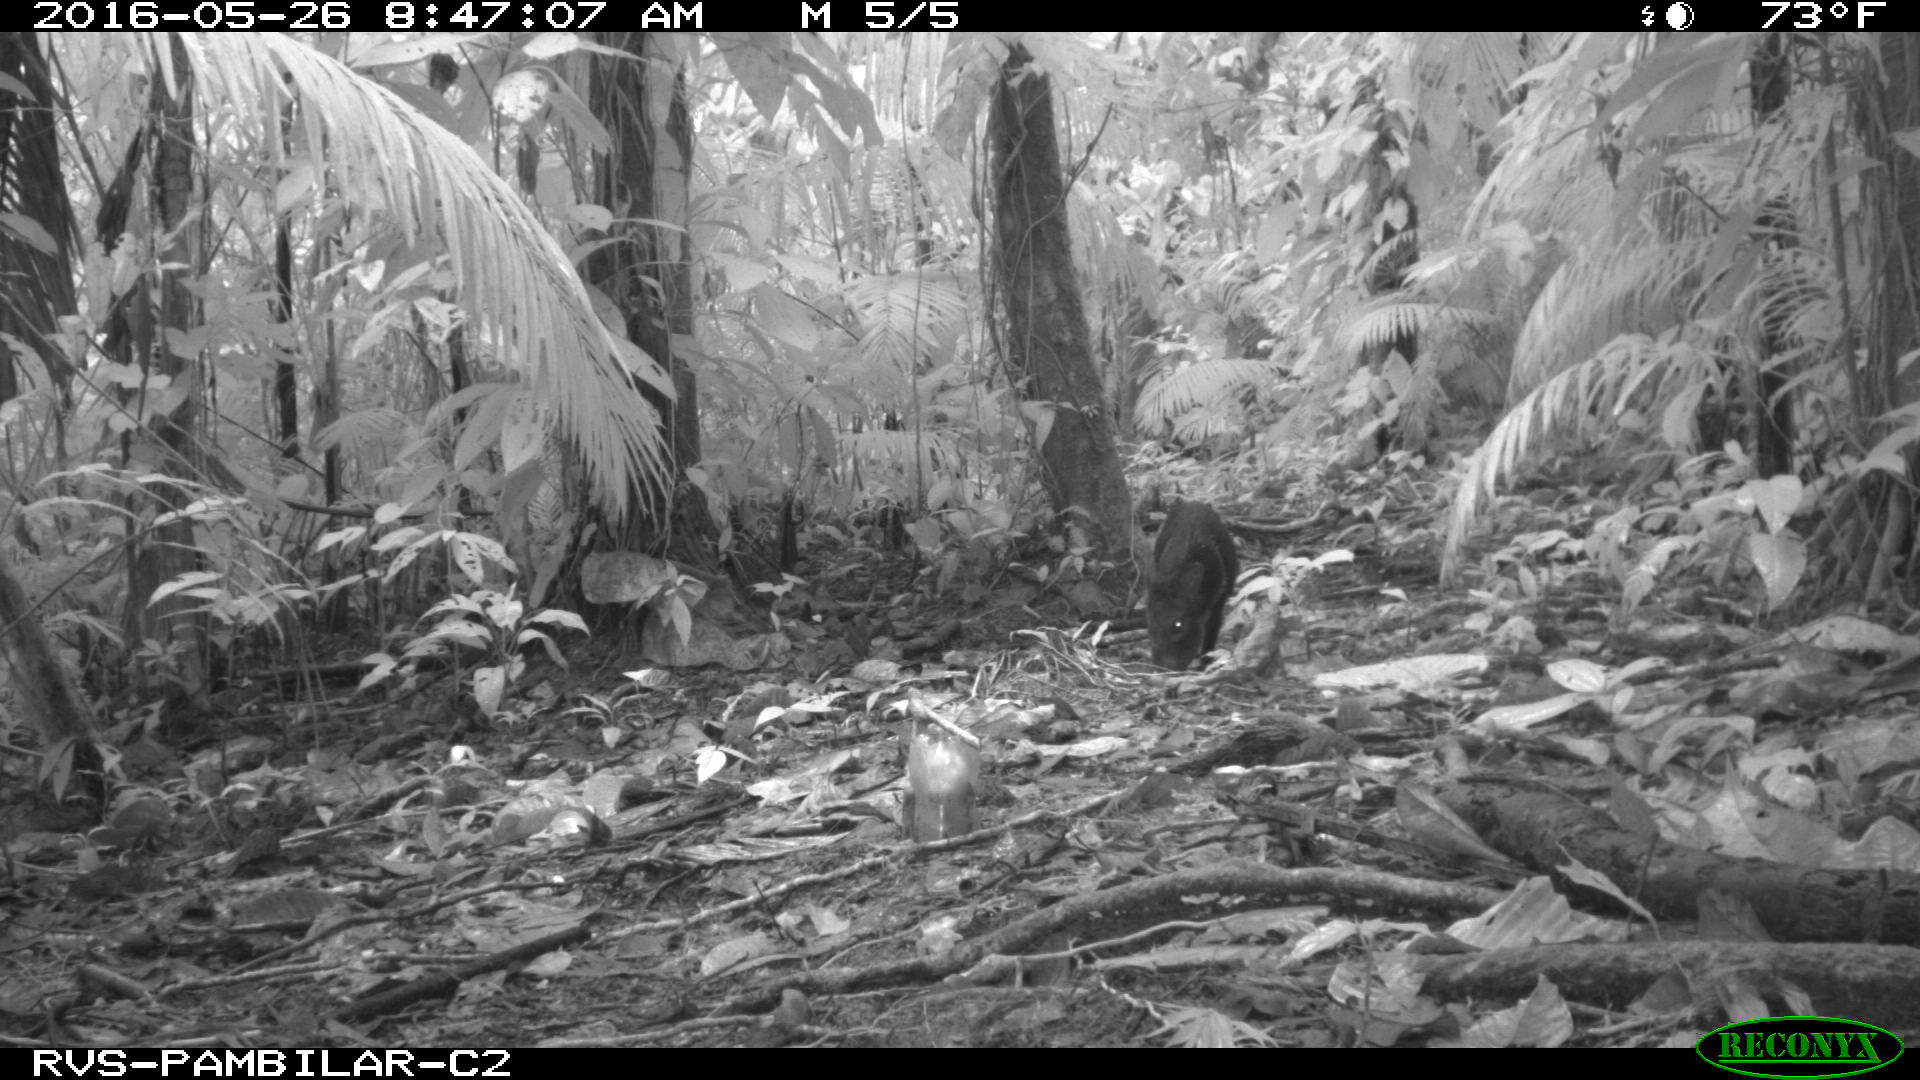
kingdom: Animalia
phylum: Chordata
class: Mammalia
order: Artiodactyla
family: Tayassuidae
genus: Pecari
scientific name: Pecari tajacu
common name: Collared peccary
